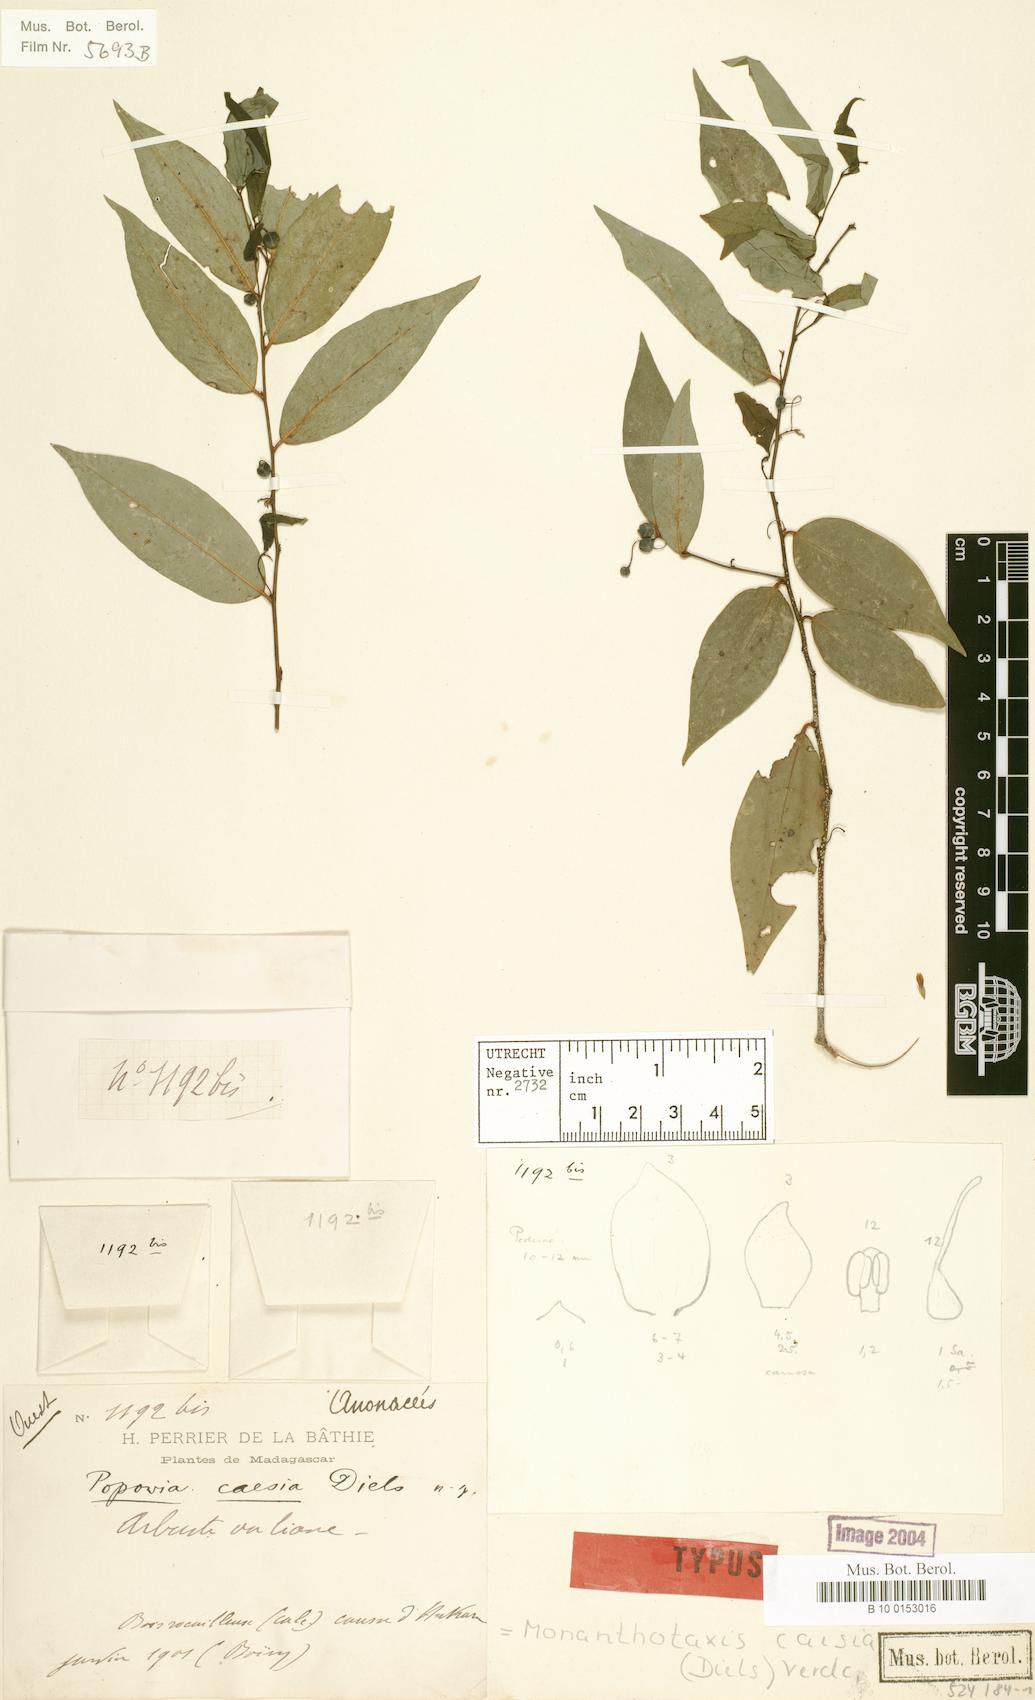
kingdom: Plantae
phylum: Tracheophyta
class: Magnoliopsida
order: Magnoliales
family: Annonaceae
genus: Monanthotaxis
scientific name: Monanthotaxis caesia
